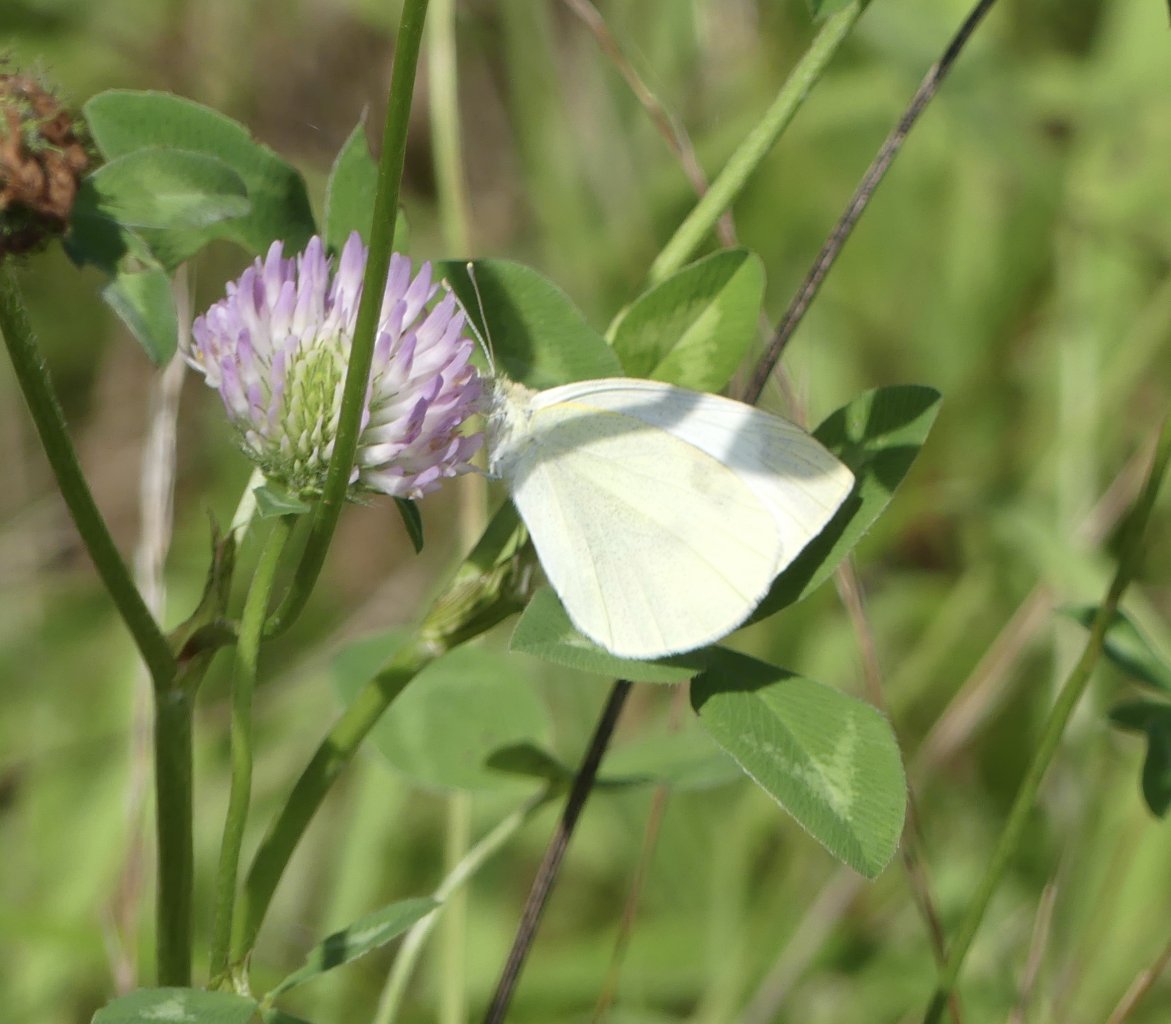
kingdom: Animalia
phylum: Arthropoda
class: Insecta
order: Lepidoptera
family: Pieridae
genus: Pieris
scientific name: Pieris rapae
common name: Cabbage White
